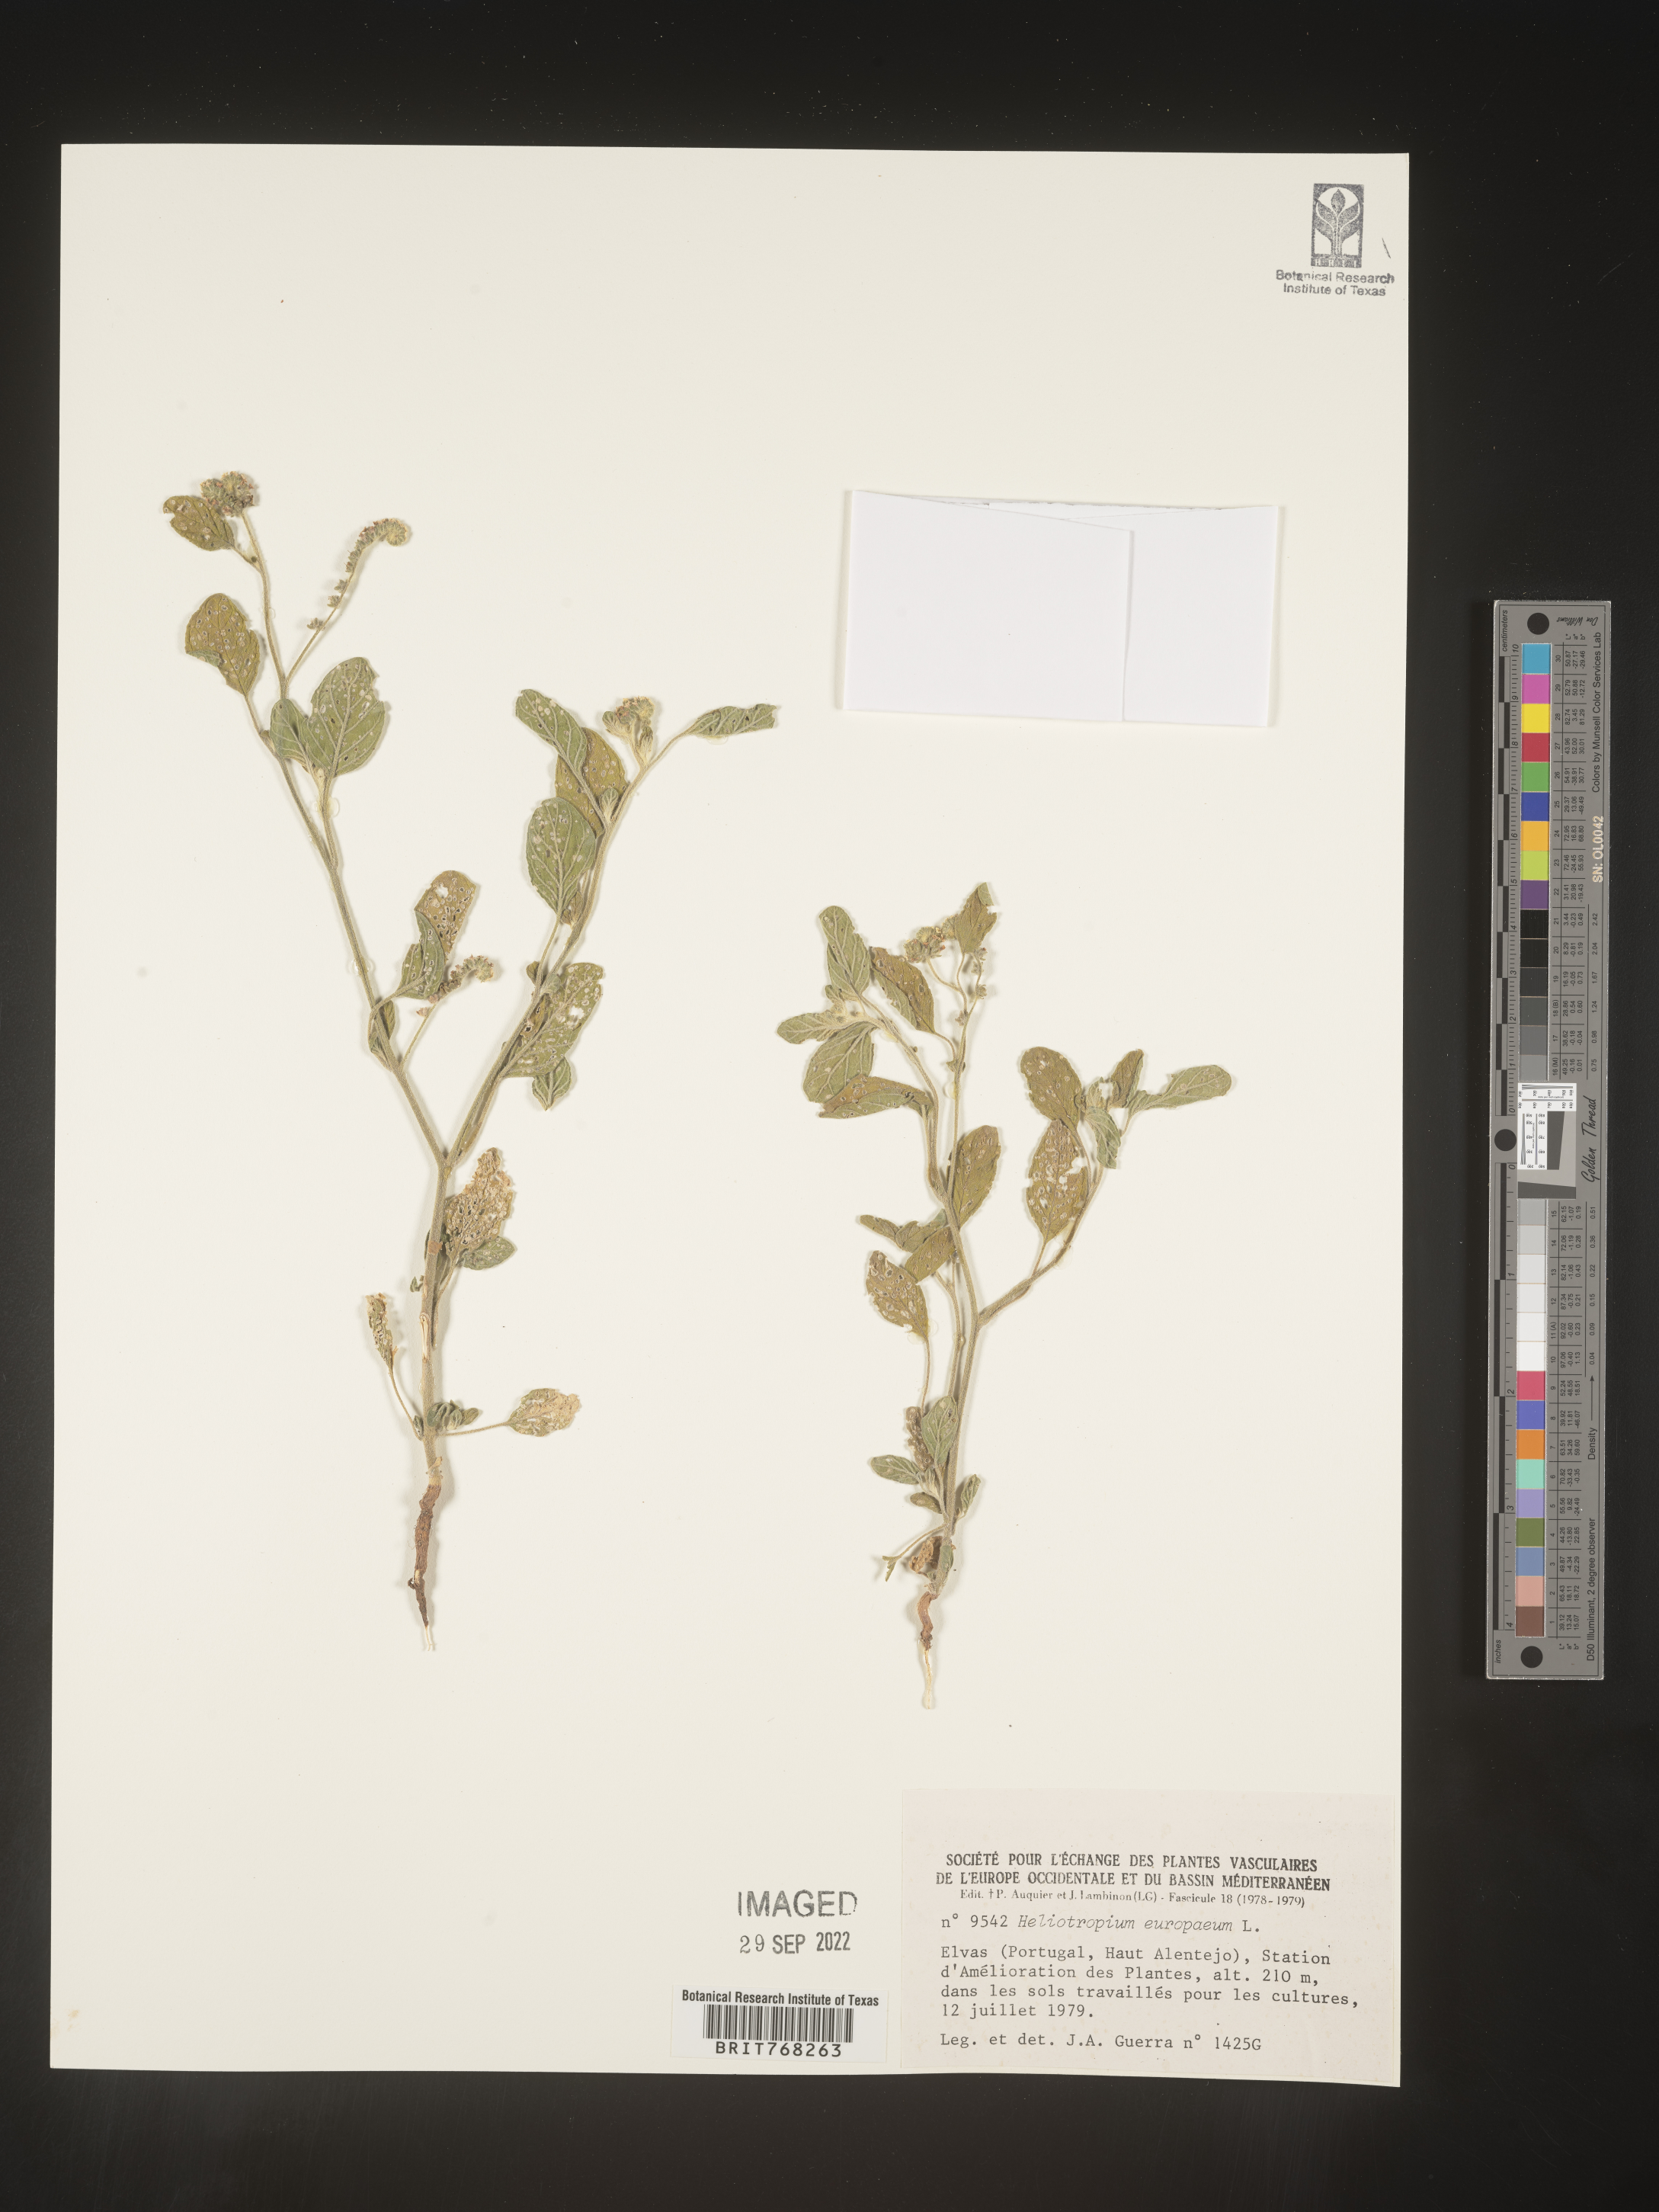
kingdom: Plantae
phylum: Tracheophyta
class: Magnoliopsida
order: Boraginales
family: Heliotropiaceae
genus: Heliotropium
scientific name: Heliotropium
